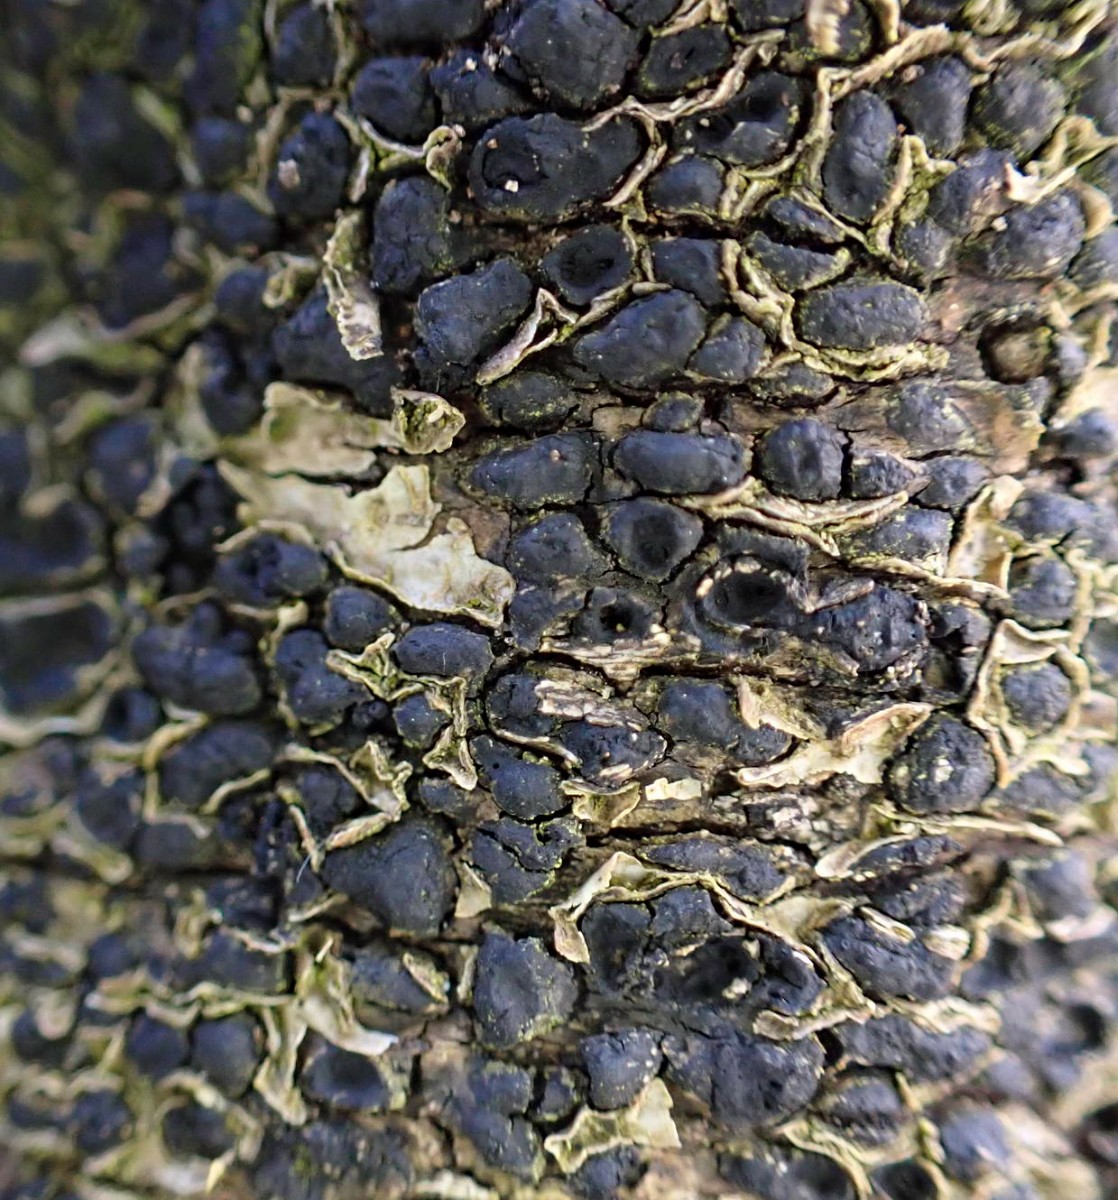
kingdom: Fungi
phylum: Ascomycota
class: Sordariomycetes
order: Xylariales
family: Melogrammataceae
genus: Melogramma
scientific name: Melogramma spiniferum
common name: bøgefod-kulhals
